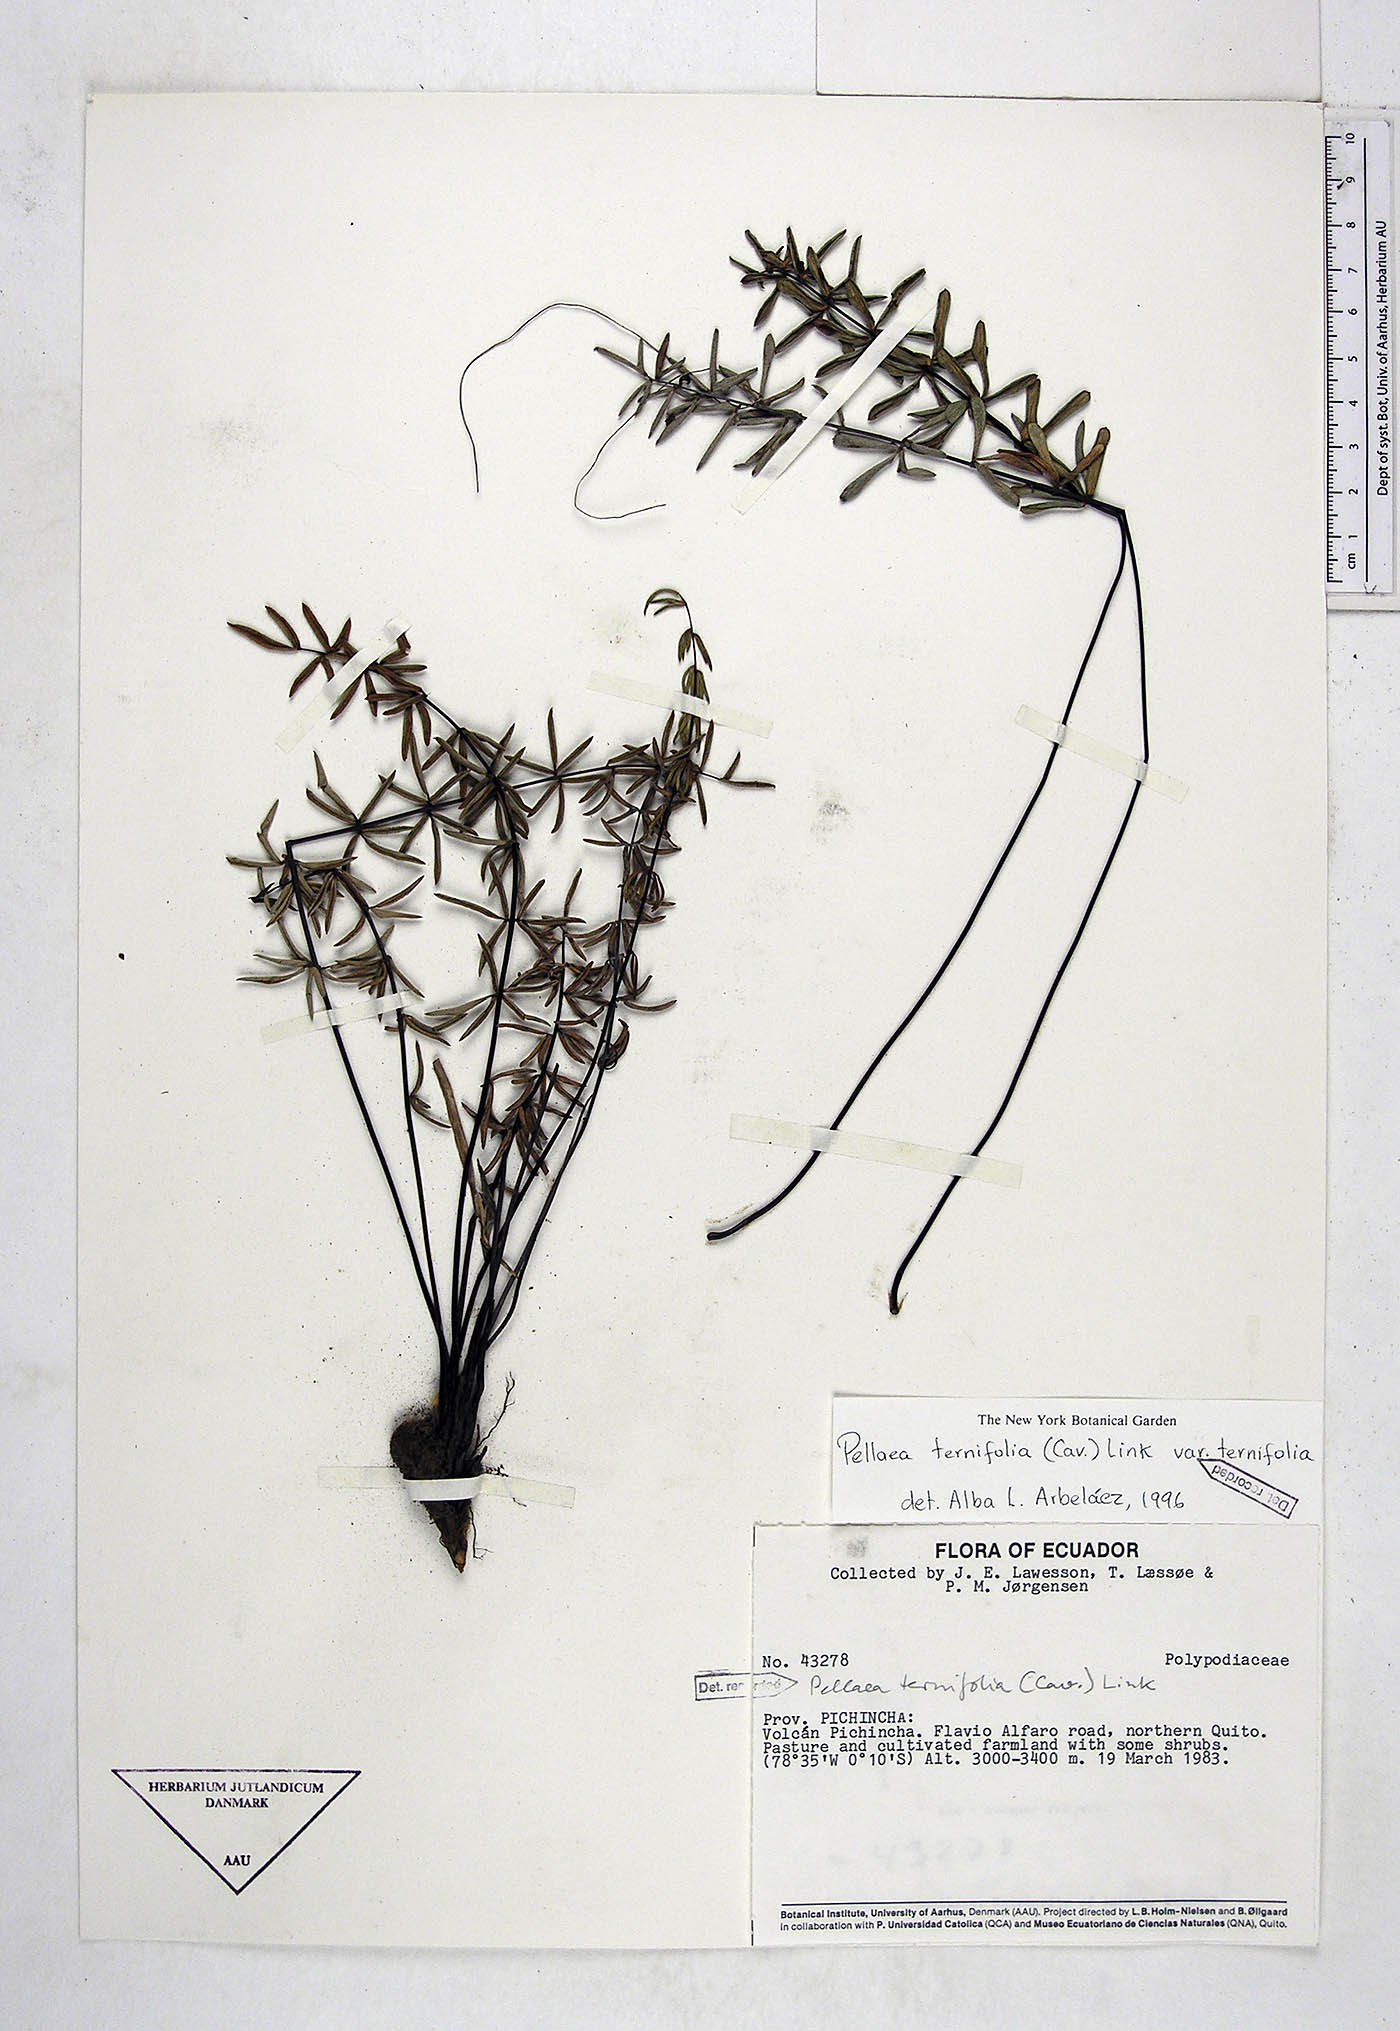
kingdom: Plantae
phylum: Tracheophyta
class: Polypodiopsida
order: Polypodiales
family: Pteridaceae
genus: Pellaea
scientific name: Pellaea ternifolia
